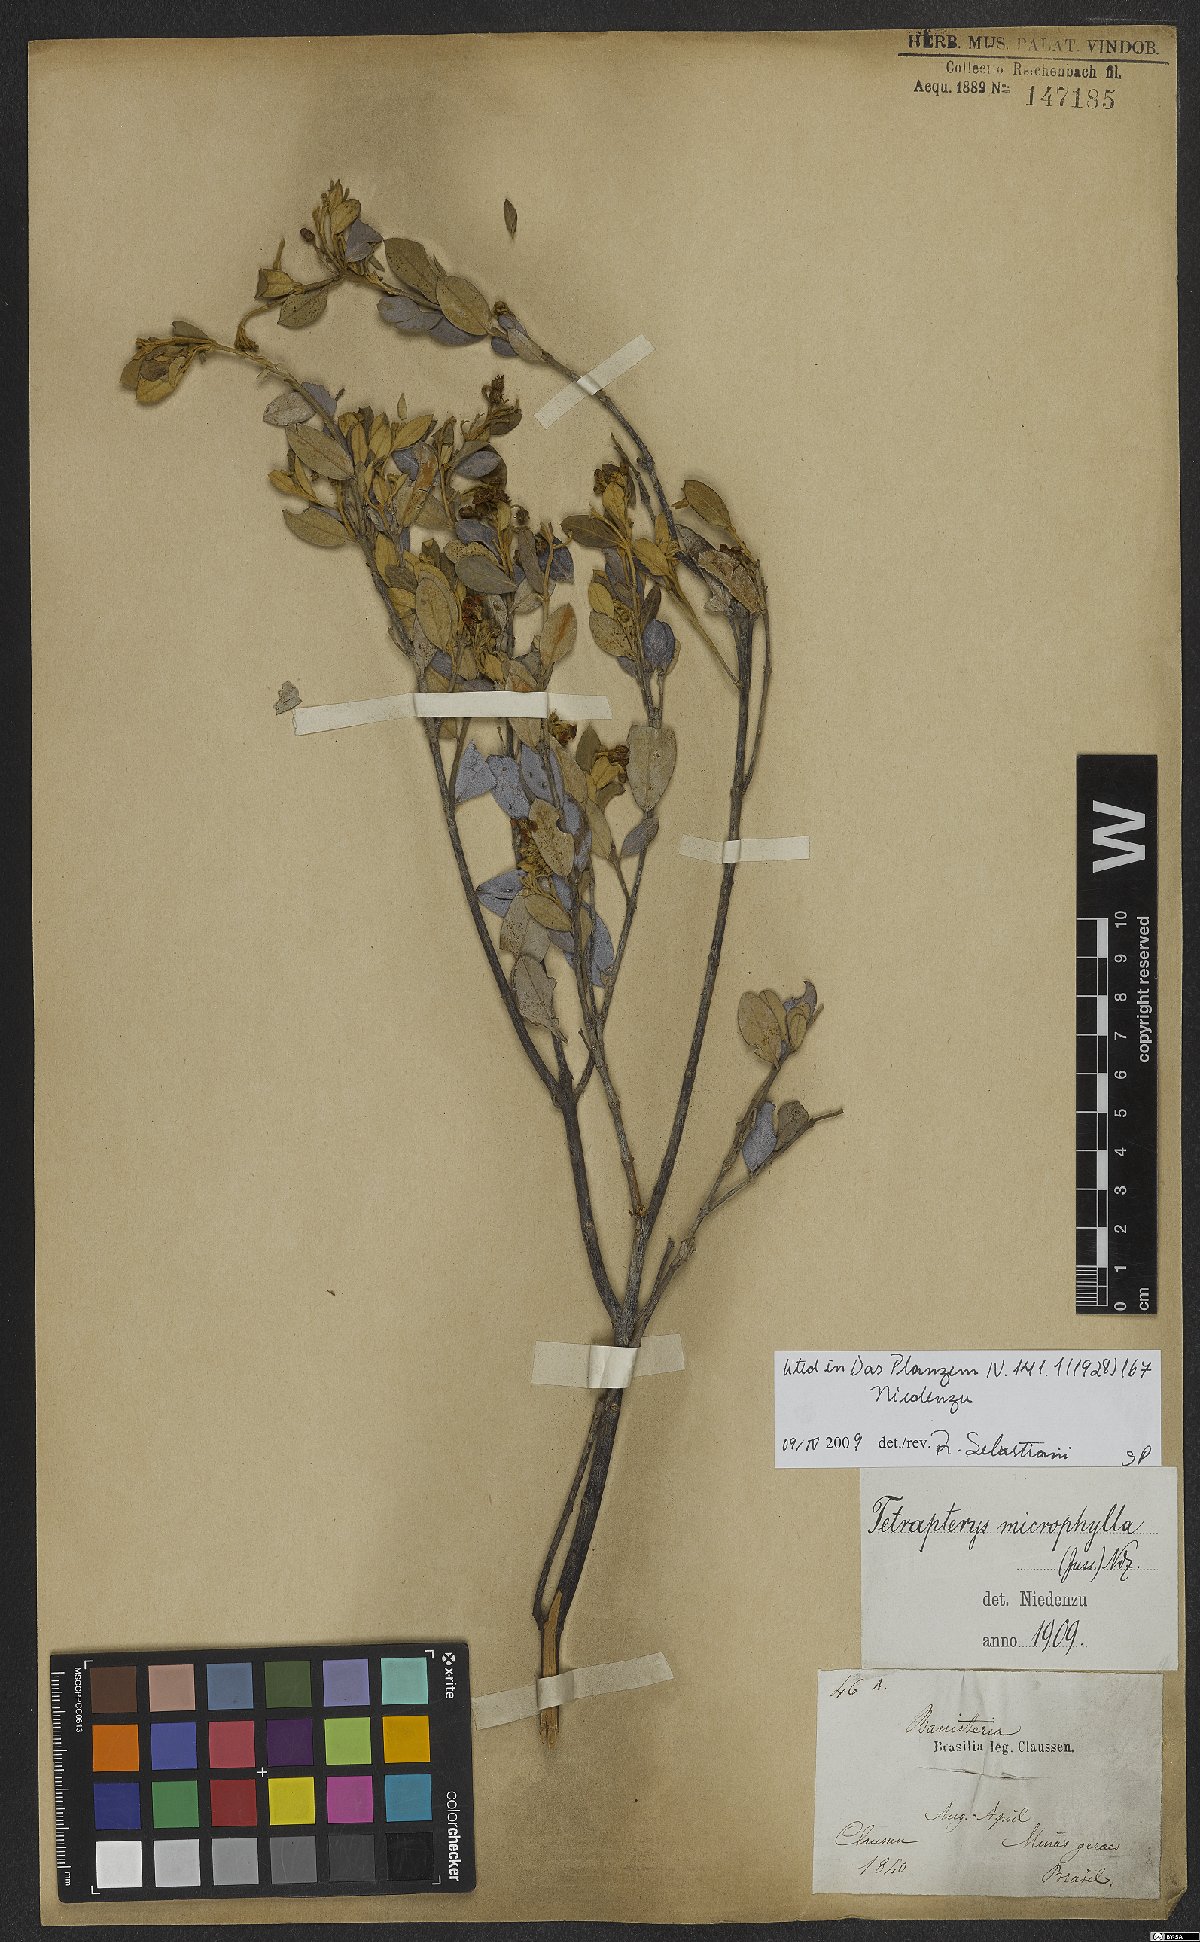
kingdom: Plantae
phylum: Tracheophyta
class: Magnoliopsida
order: Malpighiales
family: Malpighiaceae
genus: Glicophyllum
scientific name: Glicophyllum microphyllum
